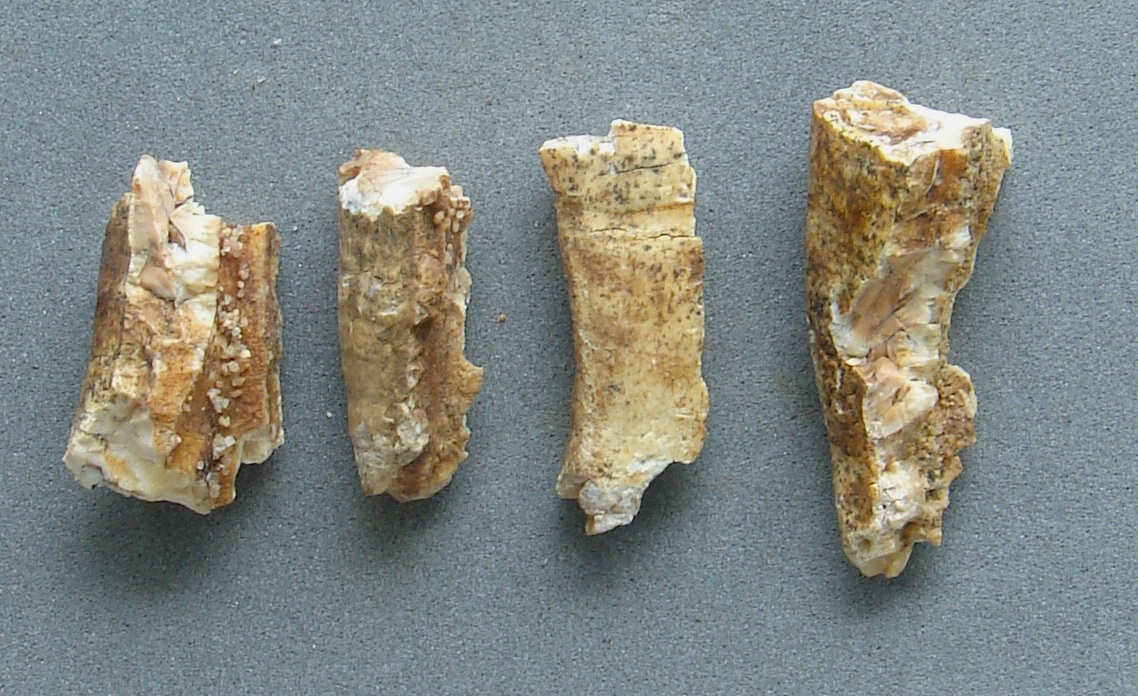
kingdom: Animalia
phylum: Chordata
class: Mammalia
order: Perissodactyla
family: Rhinocerotidae
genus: Rhinoceros
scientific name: Rhinoceros
